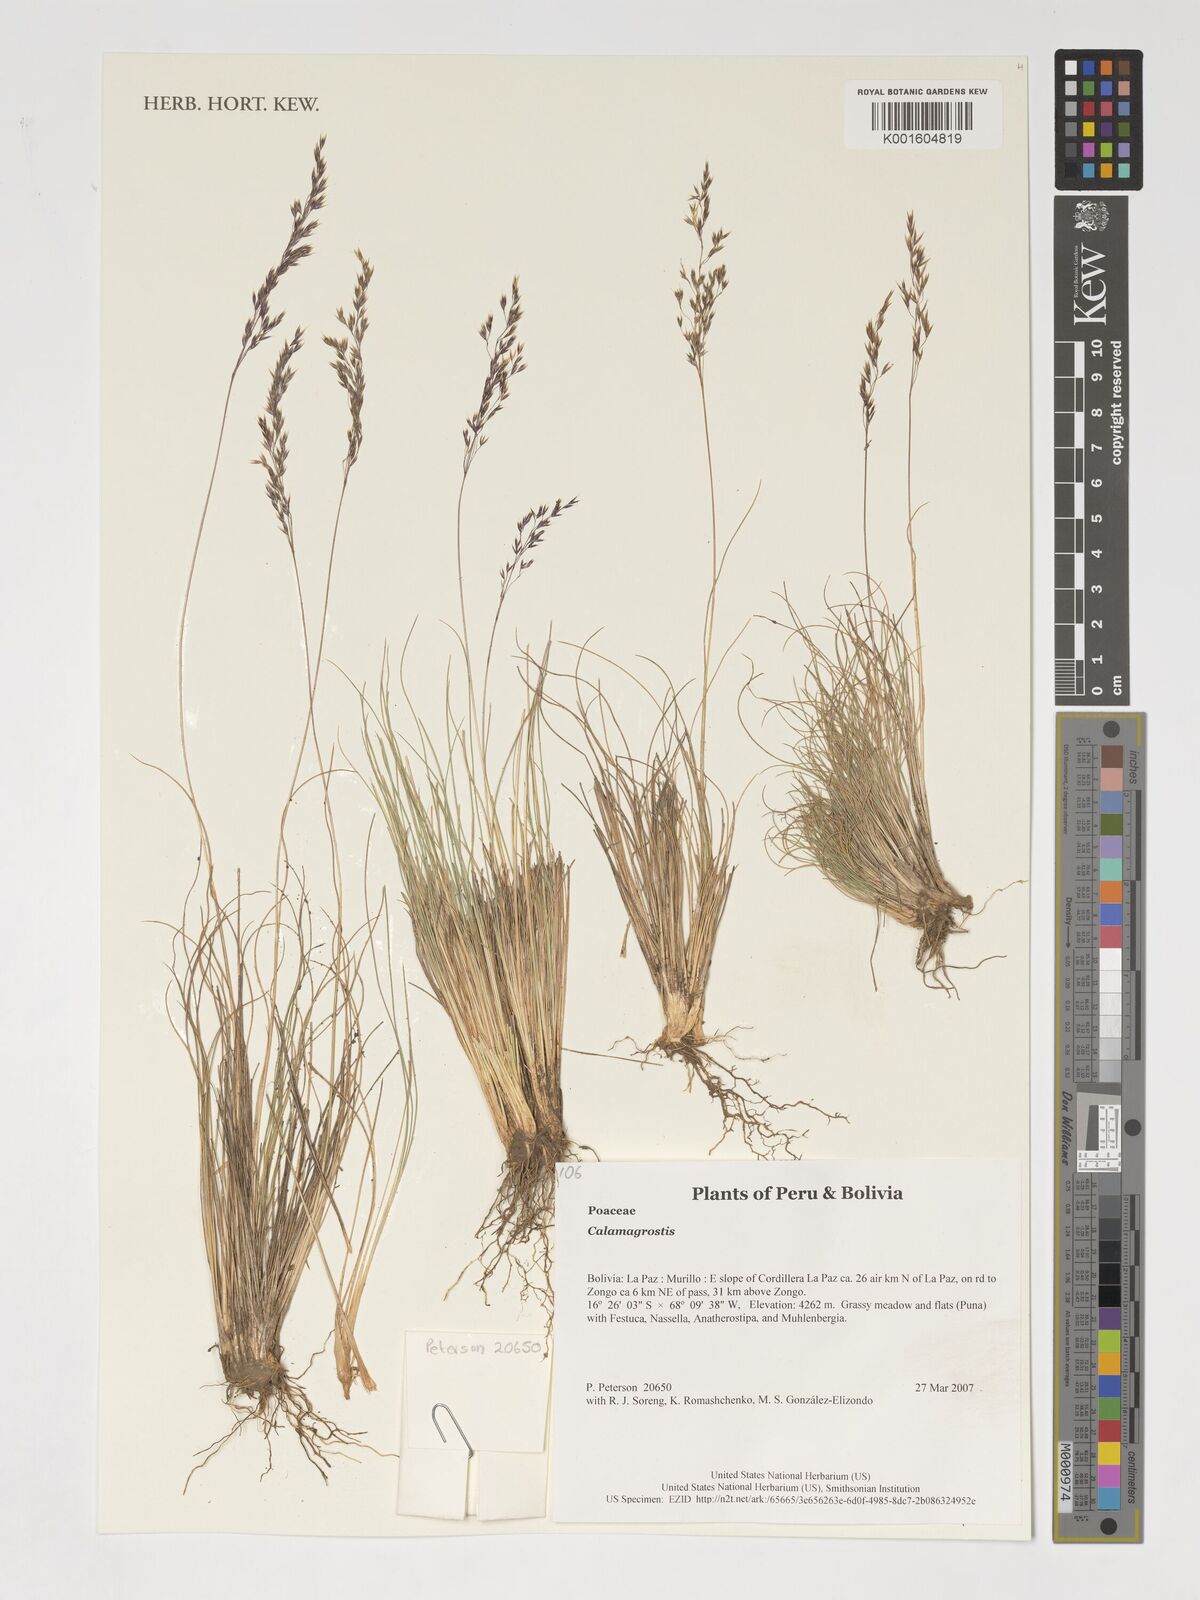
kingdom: Plantae
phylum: Tracheophyta
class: Liliopsida
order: Poales
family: Poaceae
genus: Calamagrostis
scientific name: Calamagrostis
